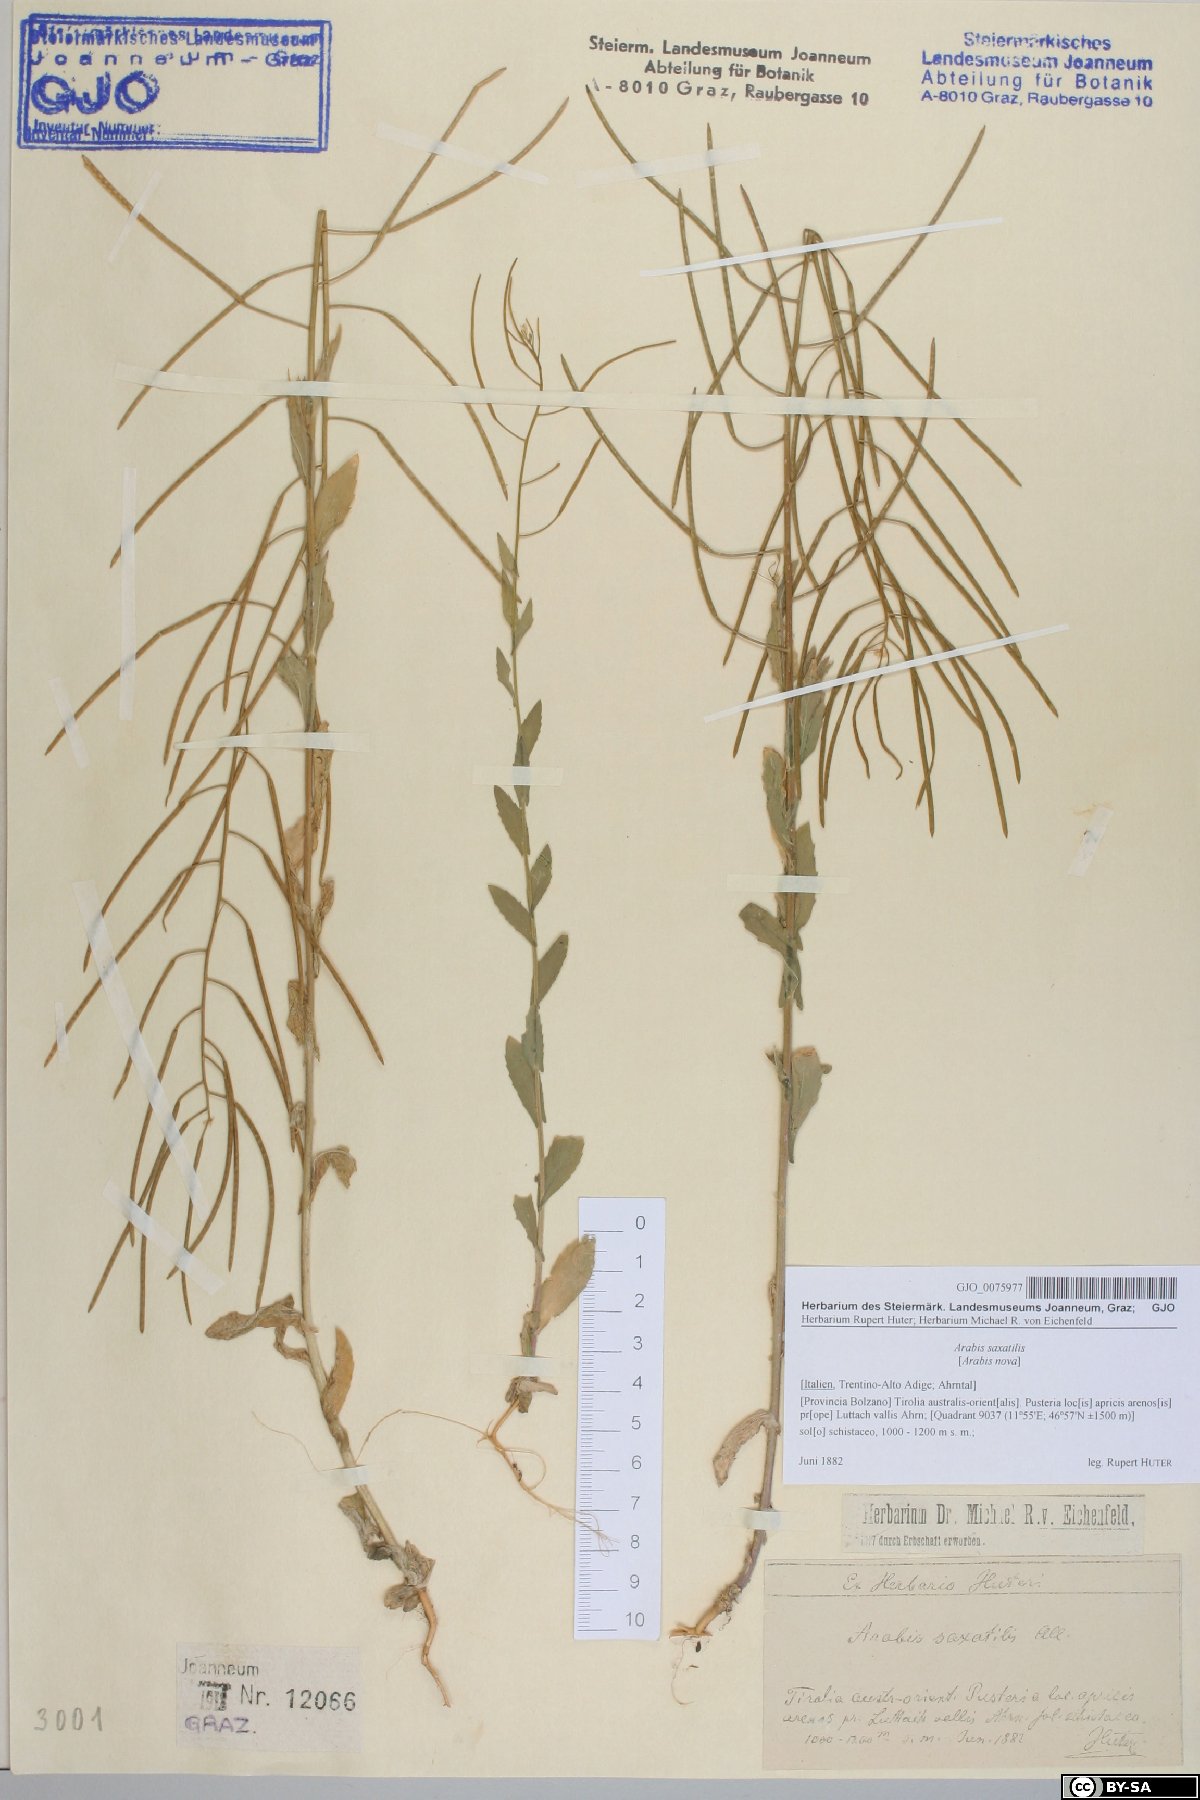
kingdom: Plantae
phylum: Tracheophyta
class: Magnoliopsida
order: Brassicales
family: Brassicaceae
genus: Arabis
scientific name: Arabis nova
